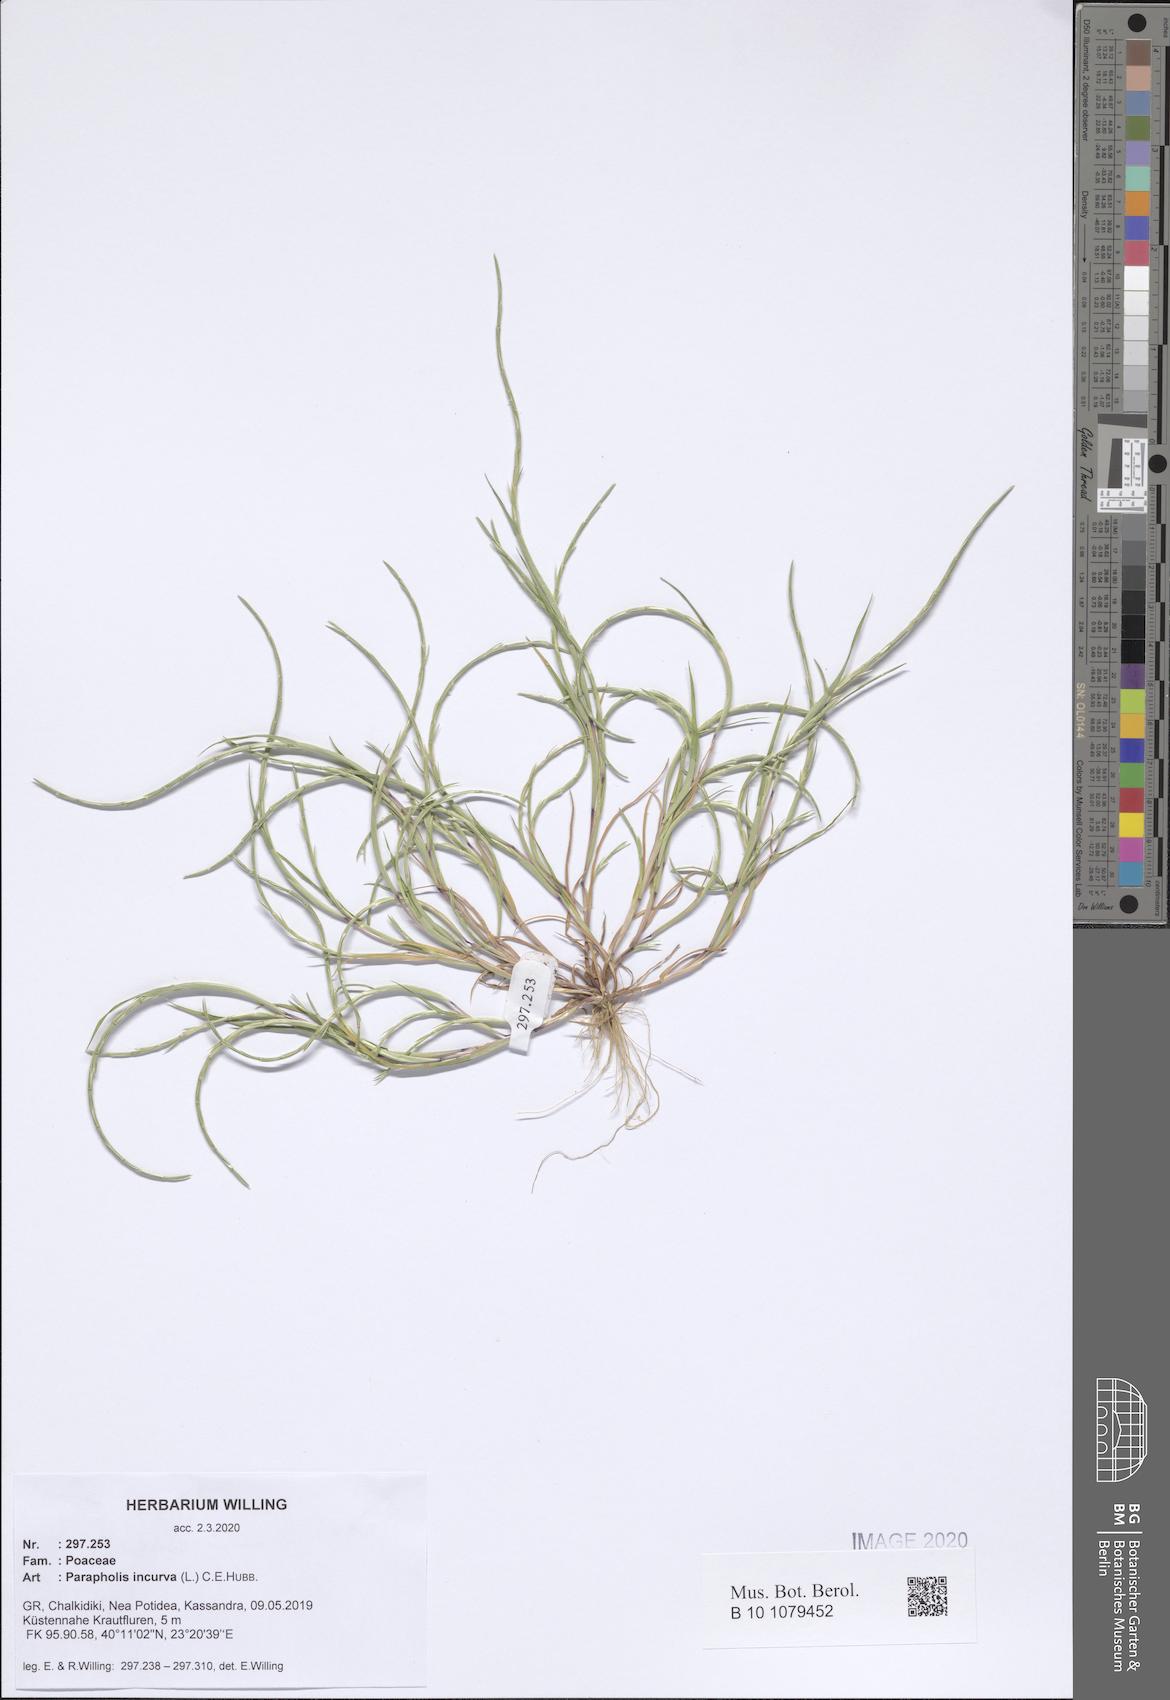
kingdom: Plantae
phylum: Tracheophyta
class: Liliopsida
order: Poales
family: Poaceae
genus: Parapholis
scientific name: Parapholis incurva
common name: Curved sicklegrass
